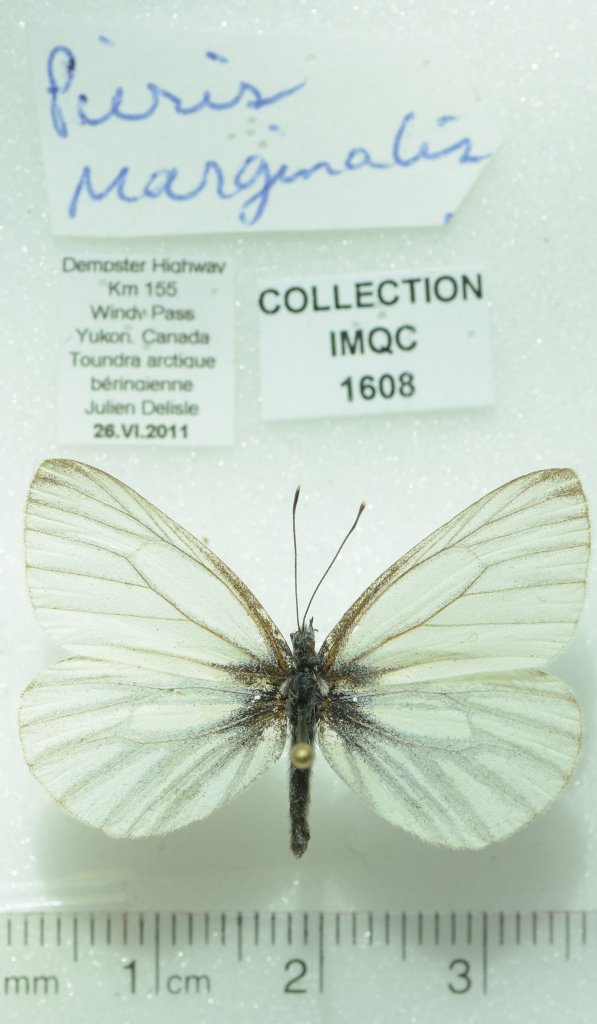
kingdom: Animalia
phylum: Arthropoda
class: Insecta
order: Lepidoptera
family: Pieridae
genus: Pieris
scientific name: Pieris angelika
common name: Arctic White
